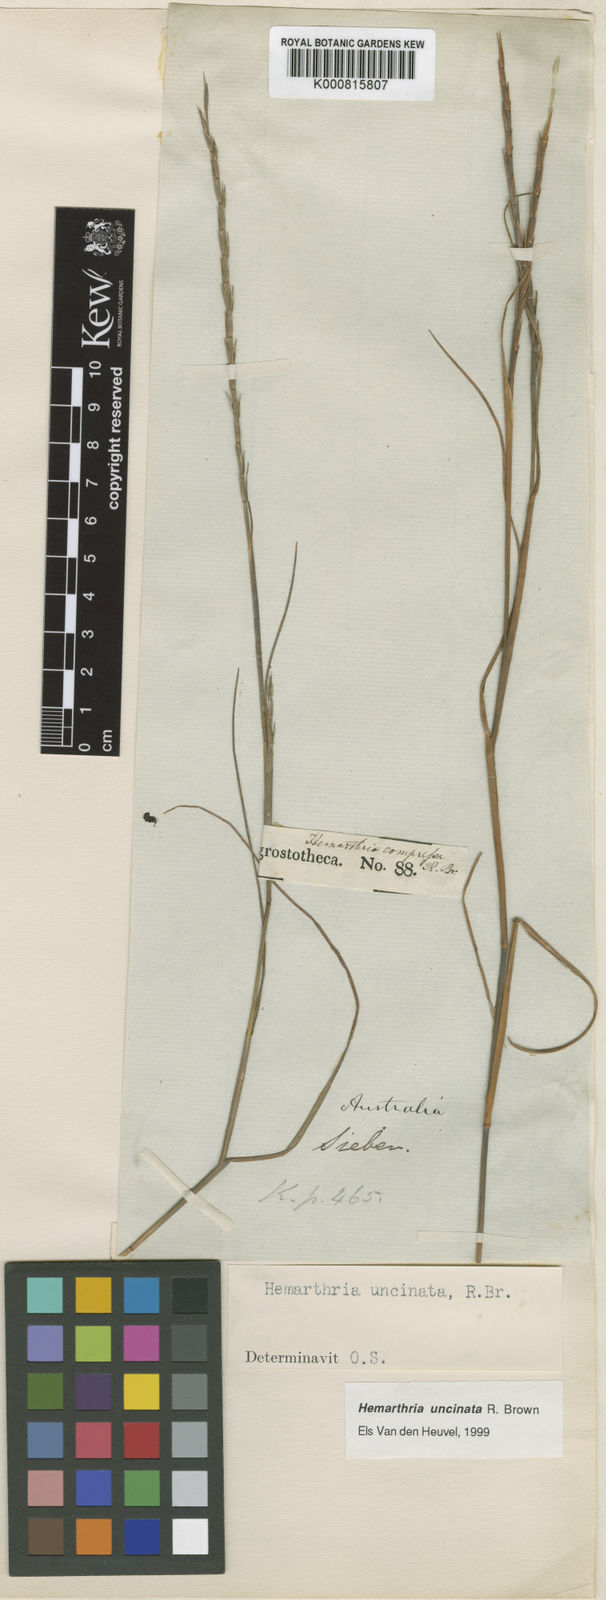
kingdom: Plantae
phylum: Tracheophyta
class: Liliopsida
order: Poales
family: Poaceae
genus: Hemarthria
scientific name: Hemarthria uncinata
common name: Matgrass
